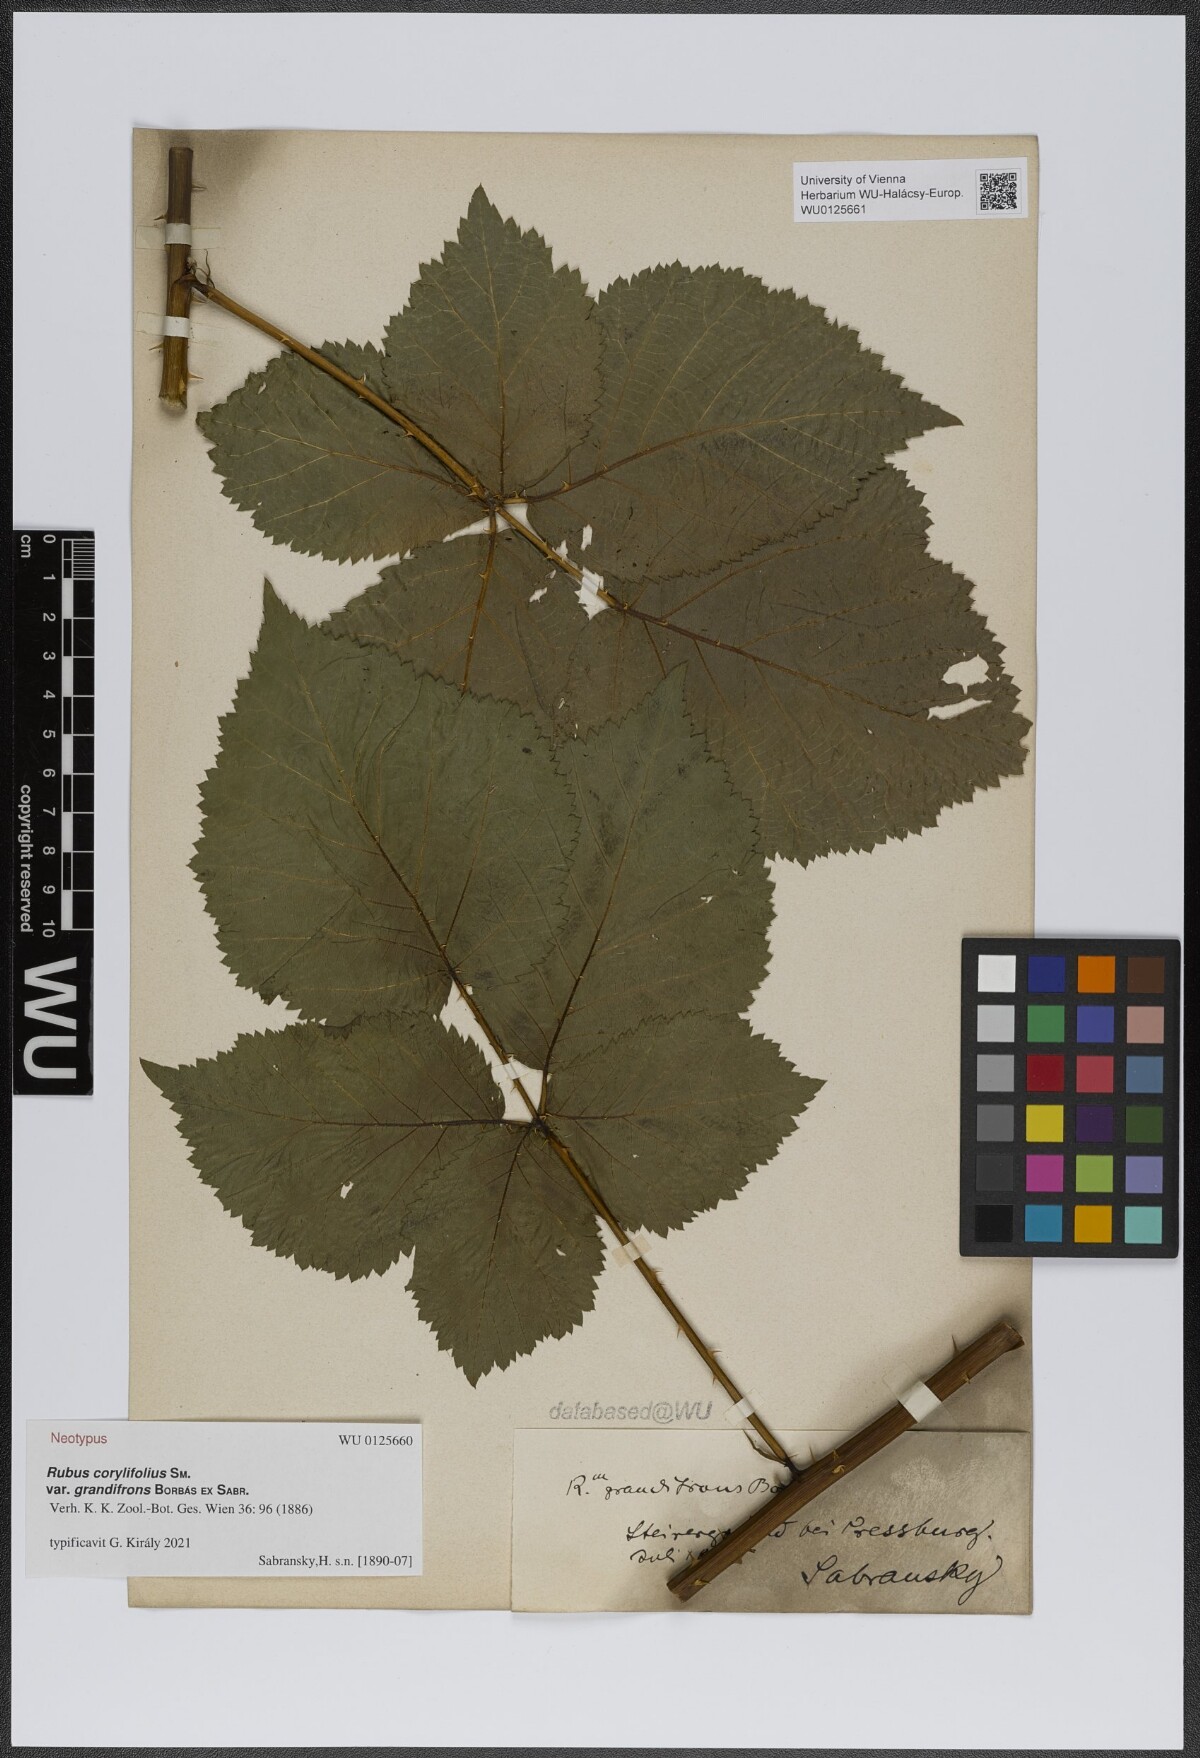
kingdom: Plantae
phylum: Tracheophyta
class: Magnoliopsida
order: Rosales
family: Rosaceae
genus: Rubus
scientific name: Rubus grandifrons
